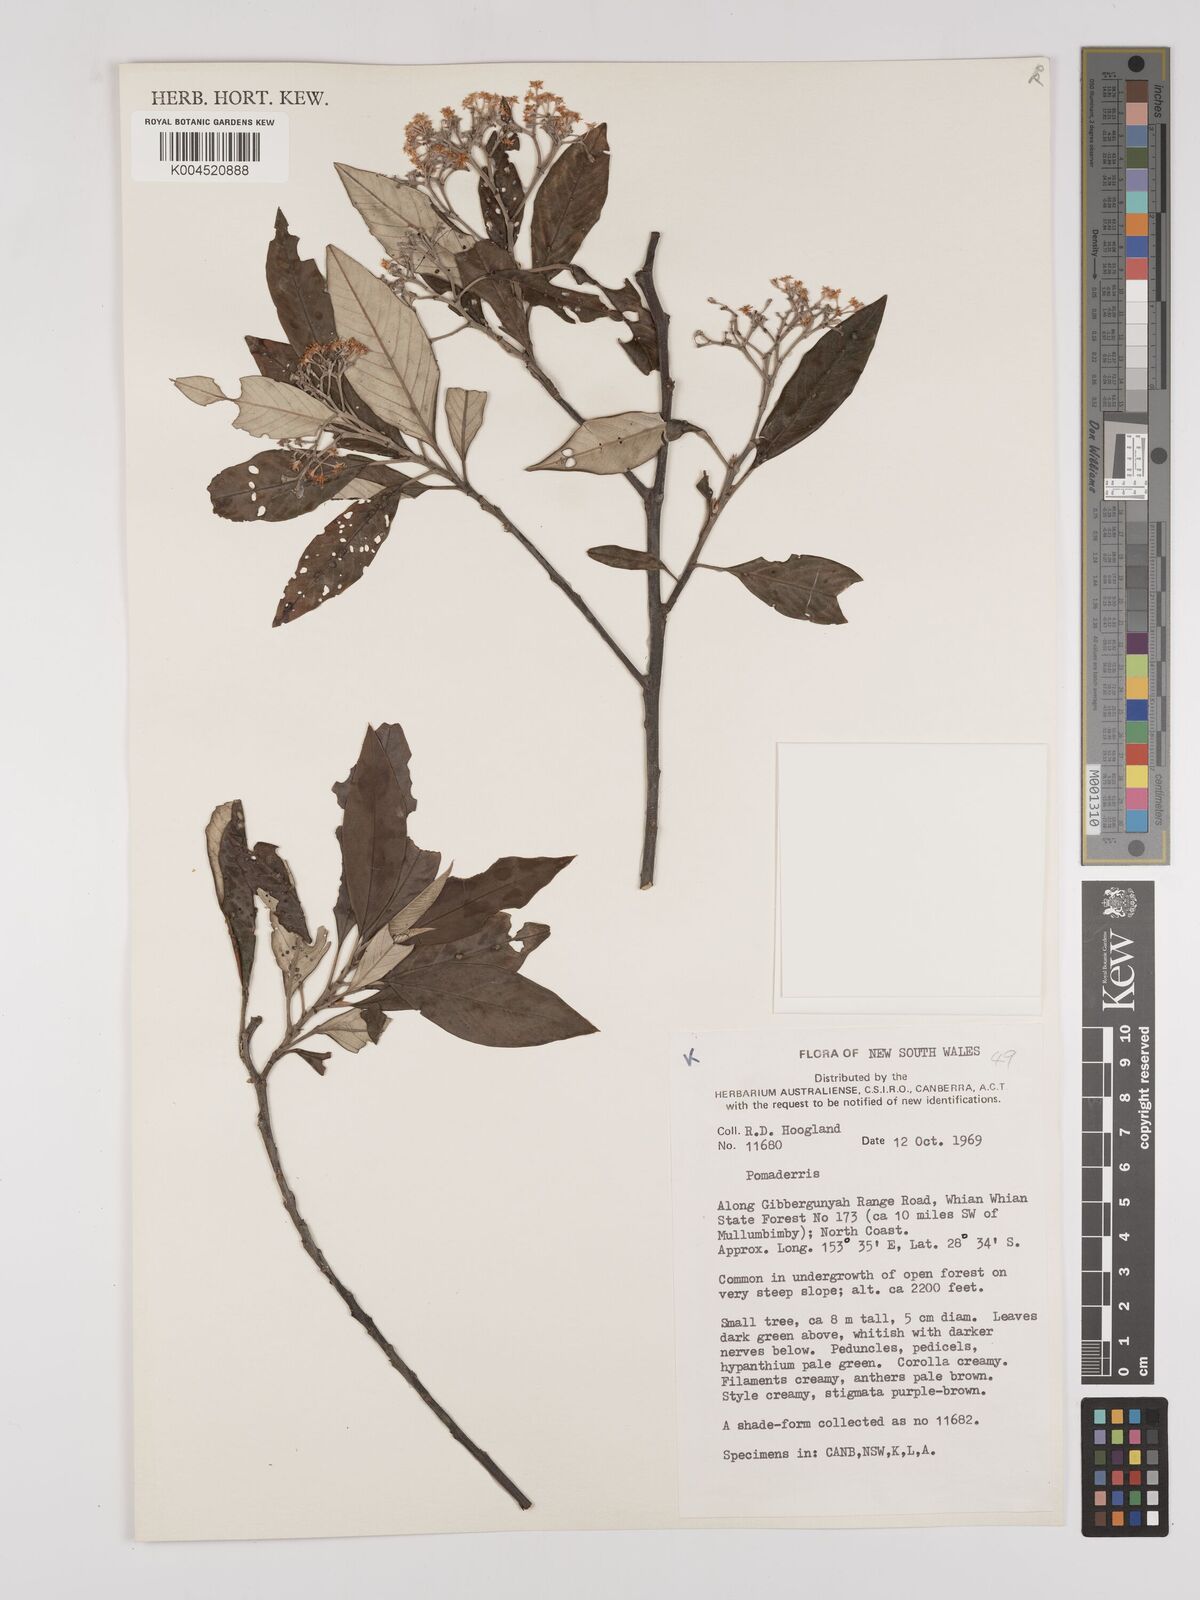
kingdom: Plantae
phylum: Tracheophyta
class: Magnoliopsida
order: Rosales
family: Rhamnaceae
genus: Pomaderris
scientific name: Pomaderris
